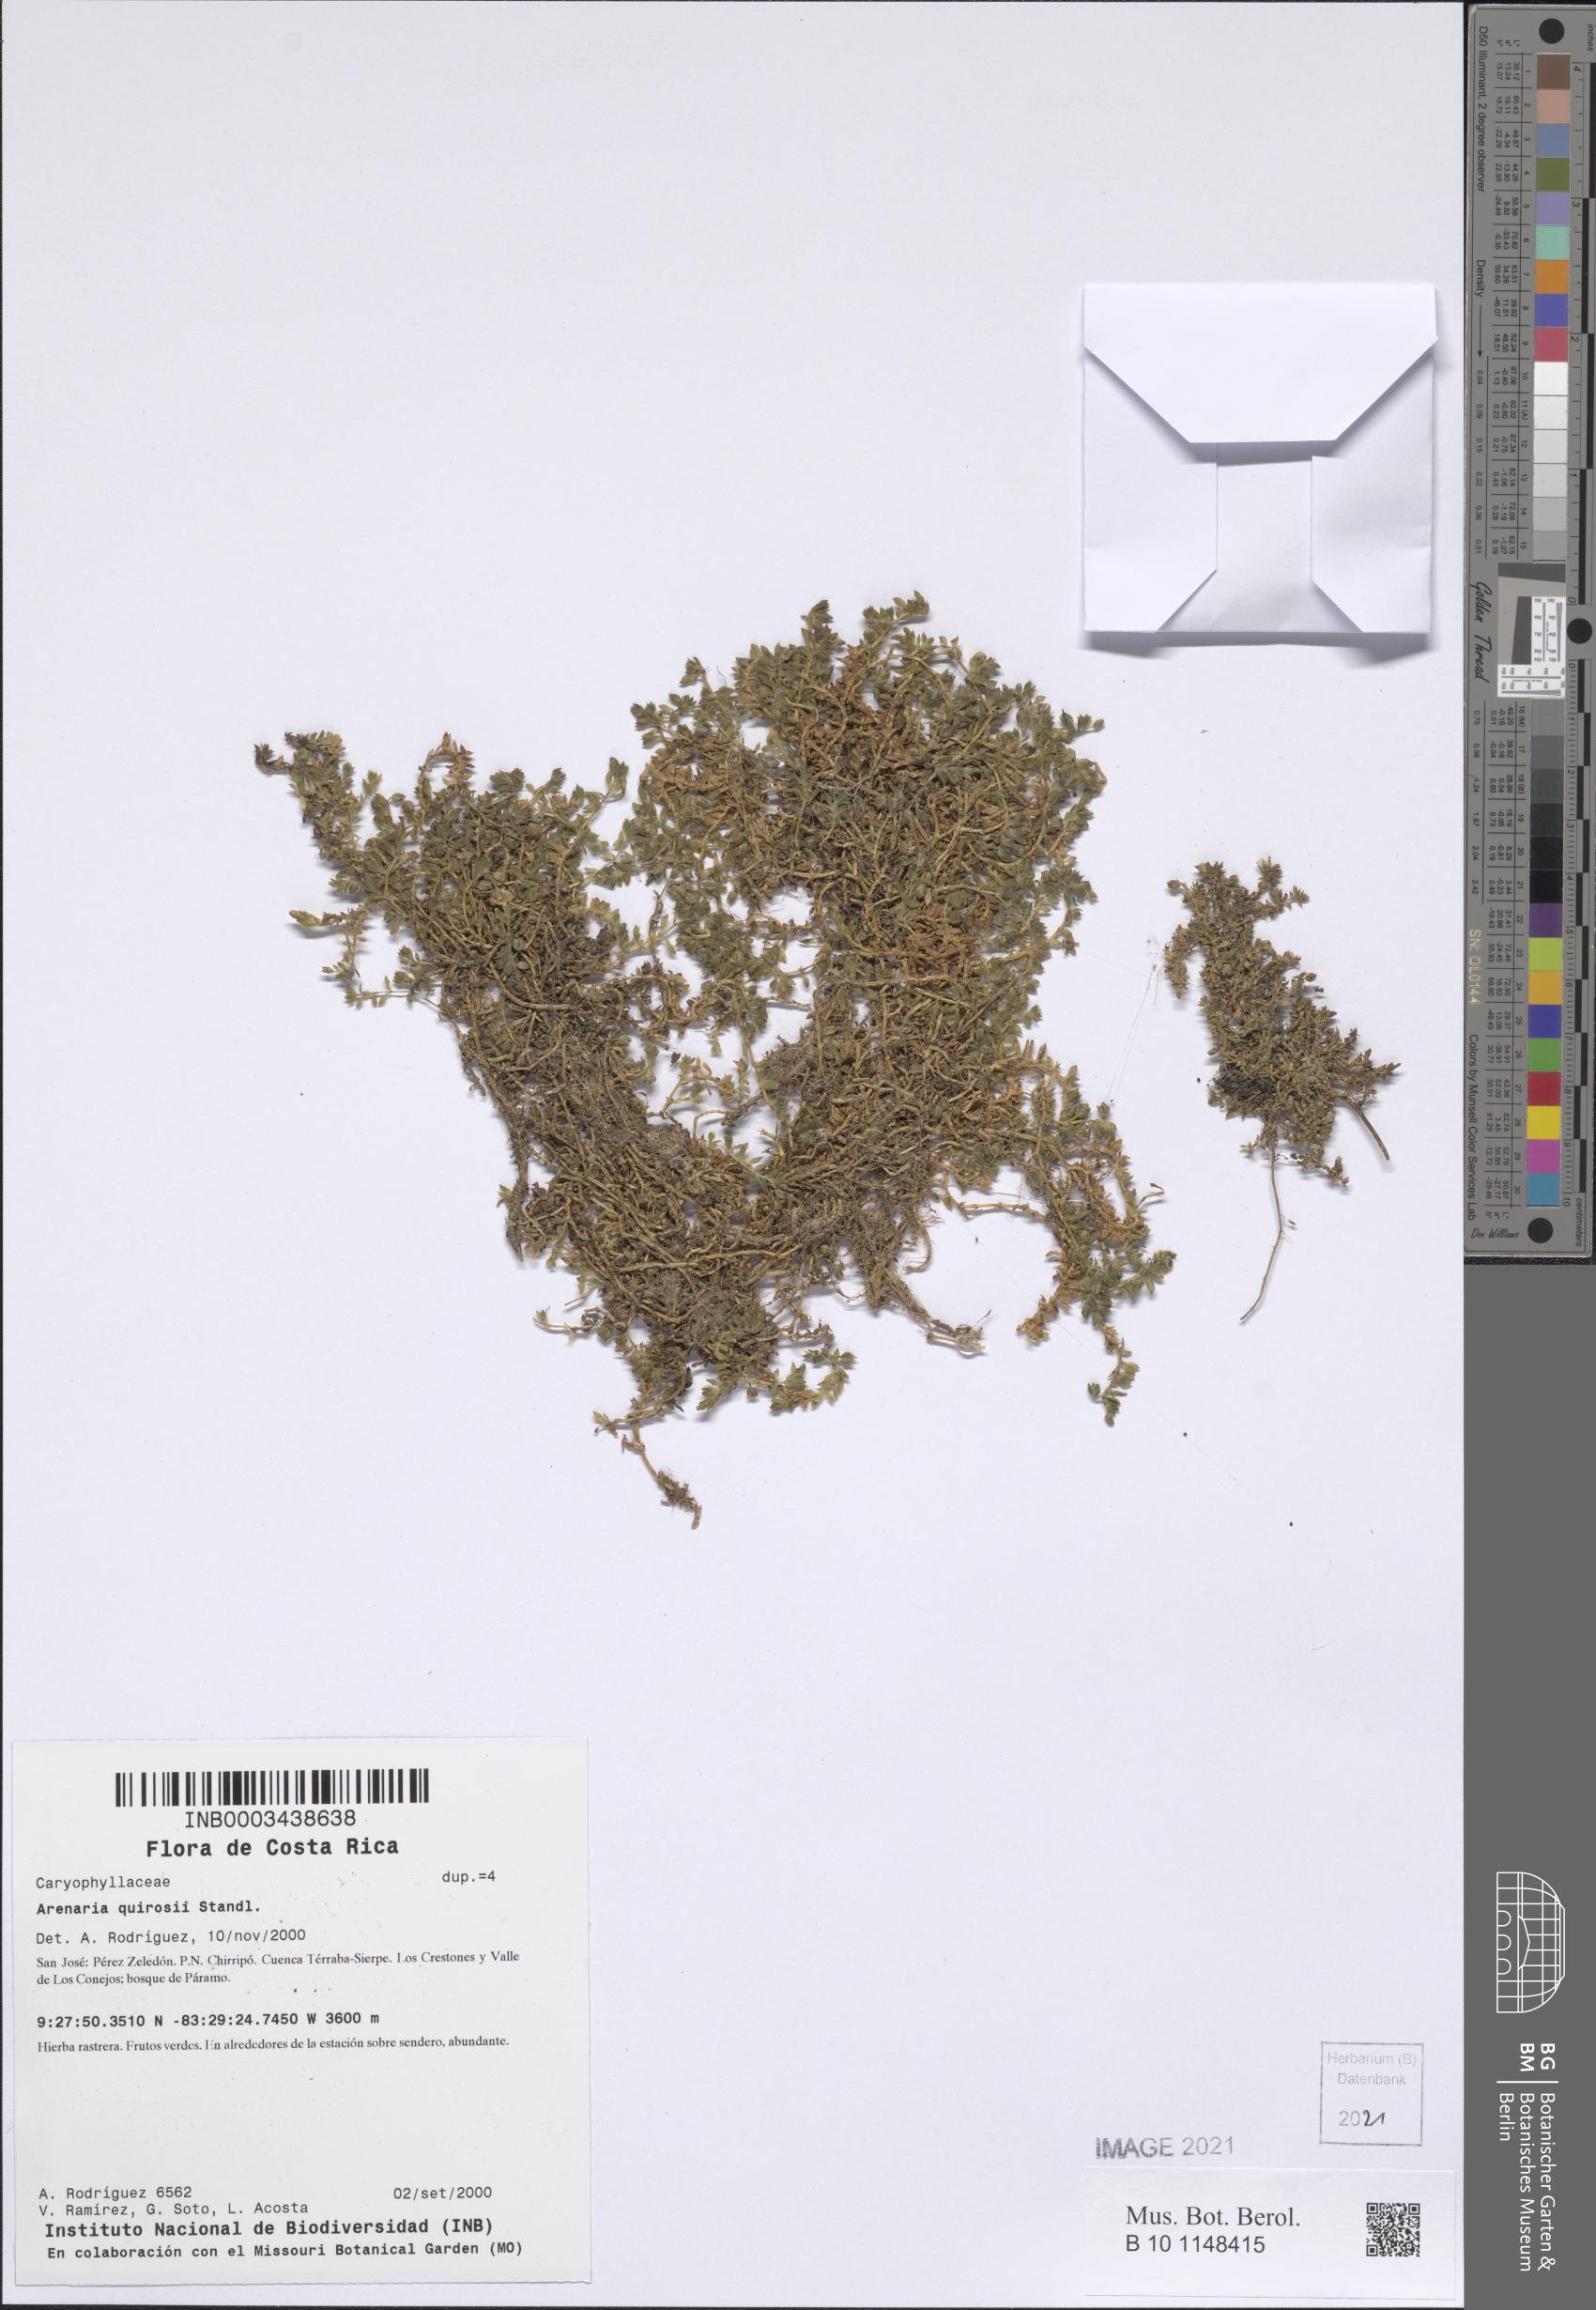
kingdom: Plantae
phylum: Tracheophyta
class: Magnoliopsida
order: Caryophyllales
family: Caryophyllaceae
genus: Arenaria
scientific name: Arenaria reptans
